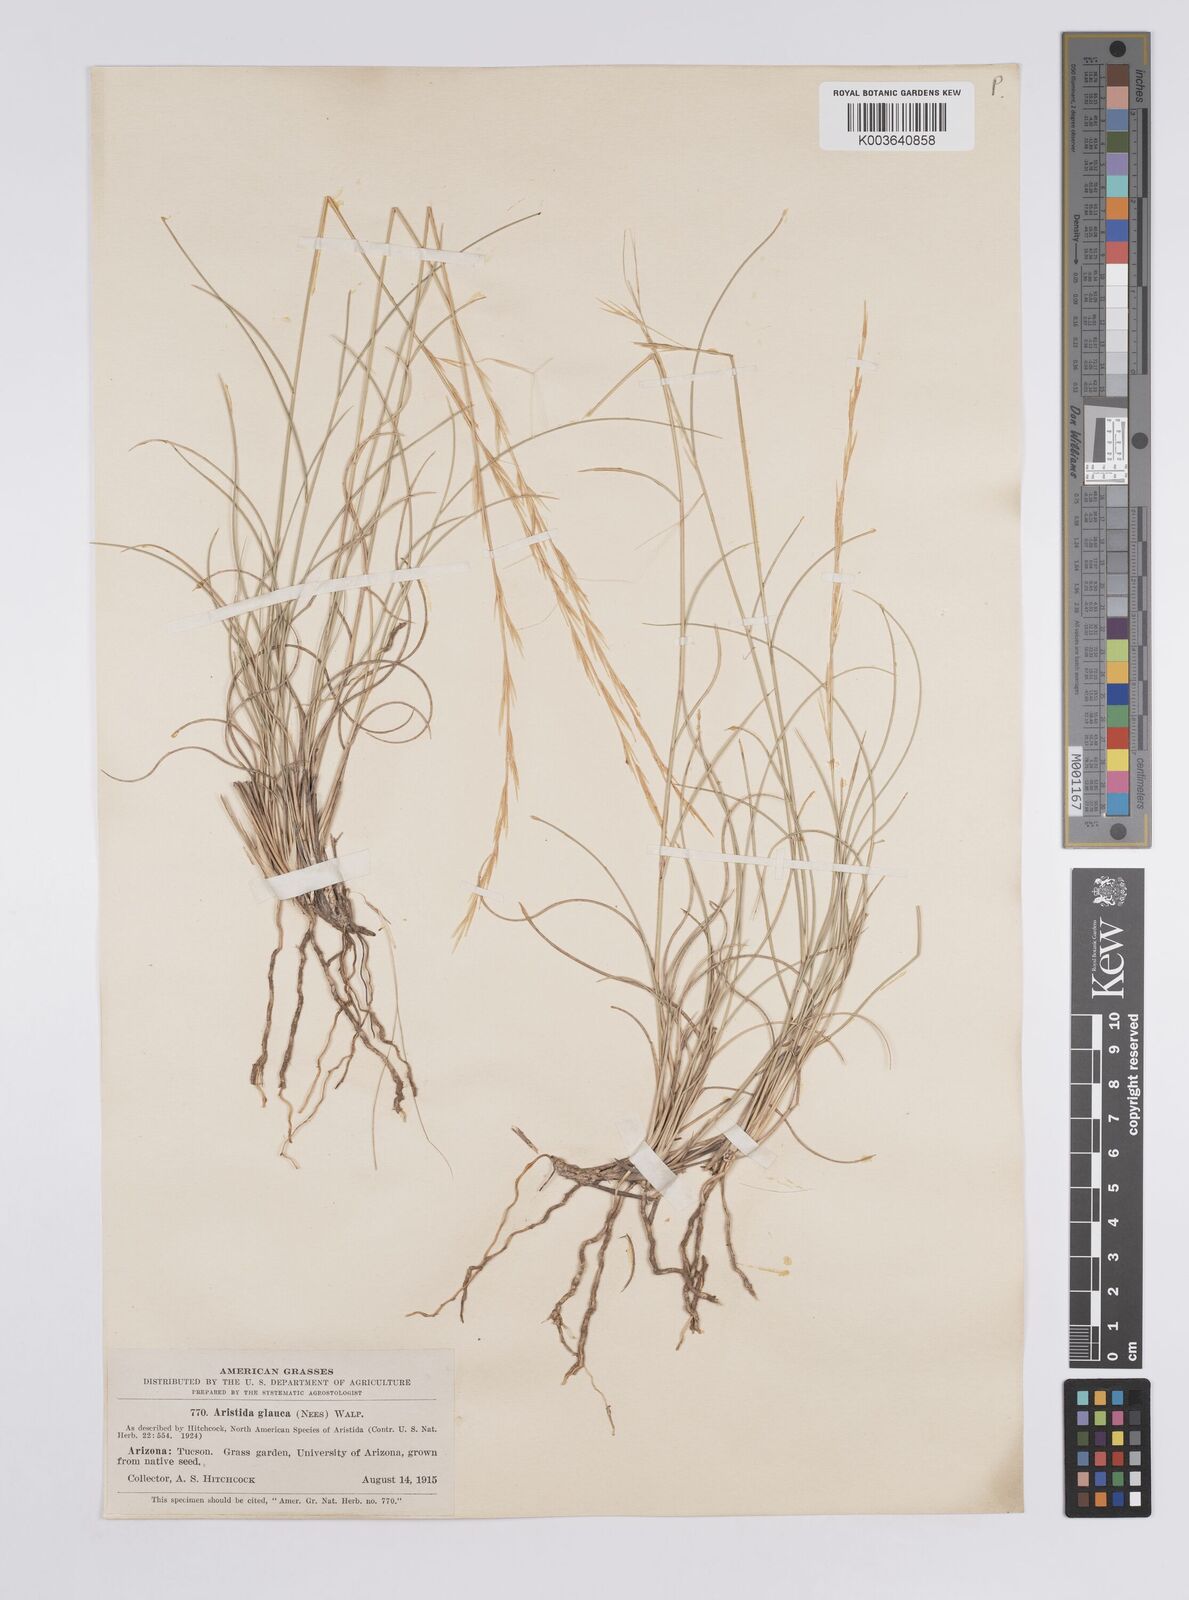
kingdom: Plantae
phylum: Tracheophyta
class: Liliopsida
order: Poales
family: Poaceae
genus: Aristida
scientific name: Aristida purpurea
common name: Purple threeawn
